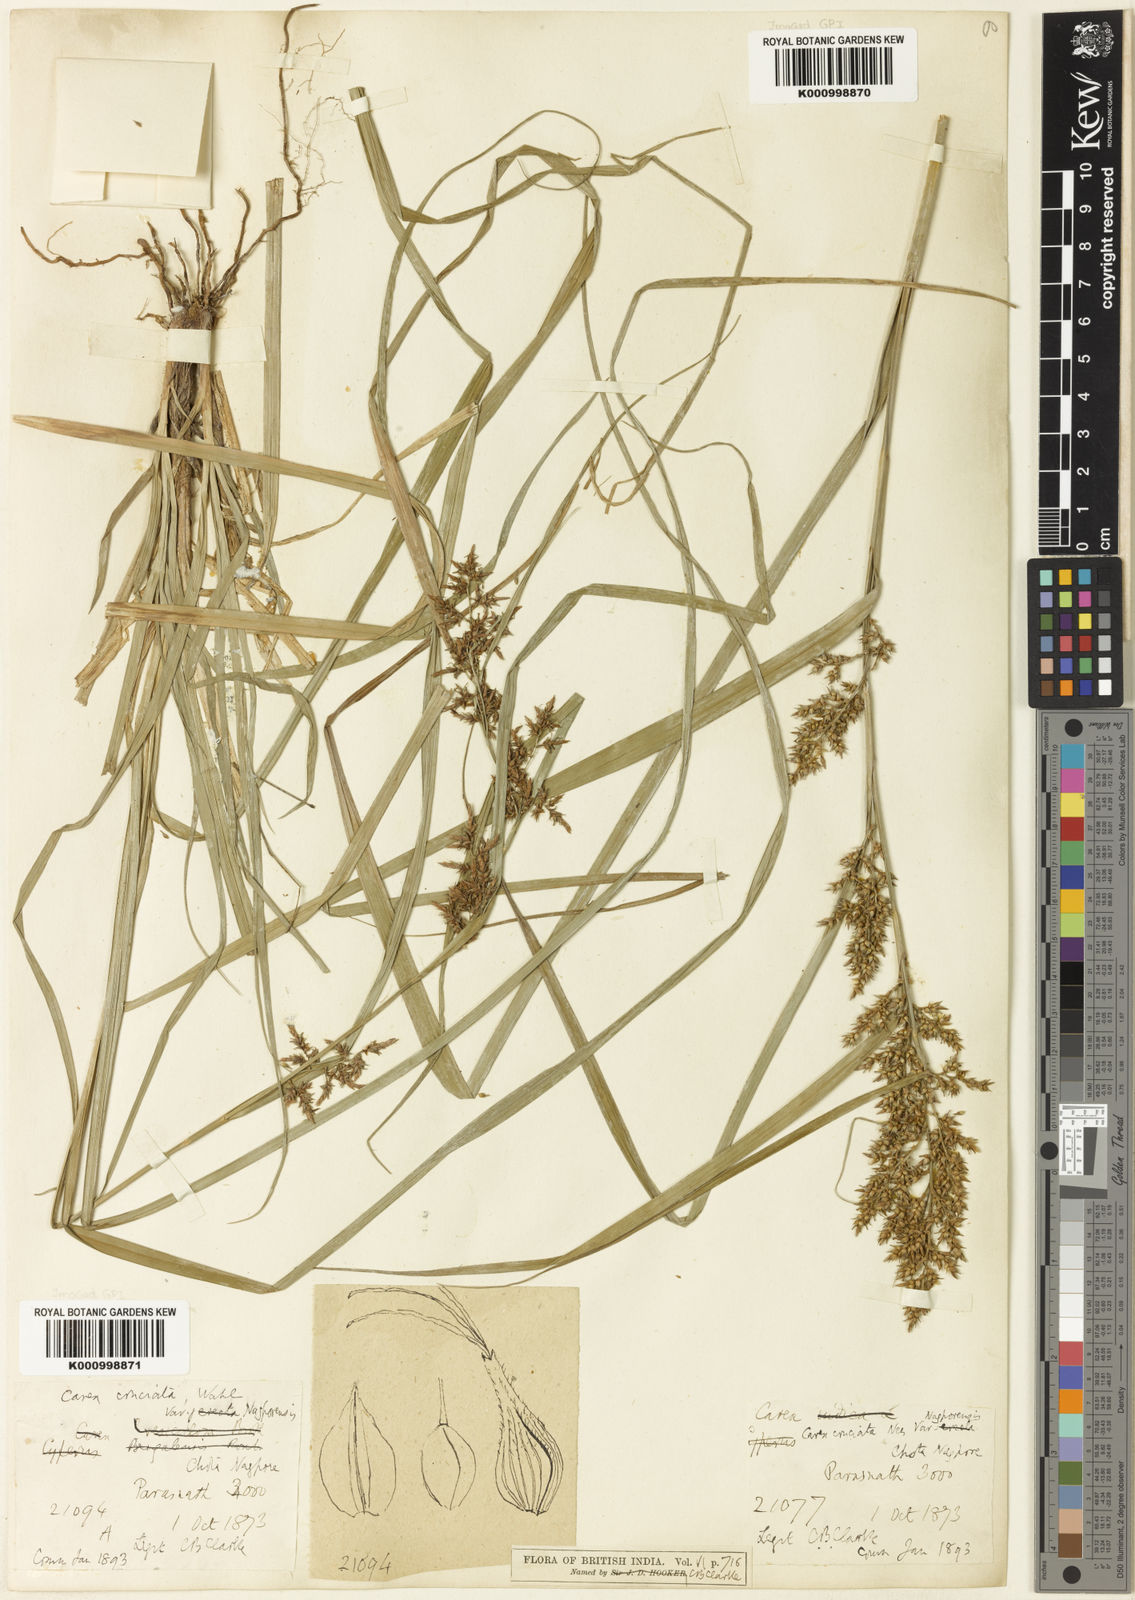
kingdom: Plantae
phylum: Tracheophyta
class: Liliopsida
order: Poales
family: Cyperaceae
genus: Carex
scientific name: Carex cruciata
